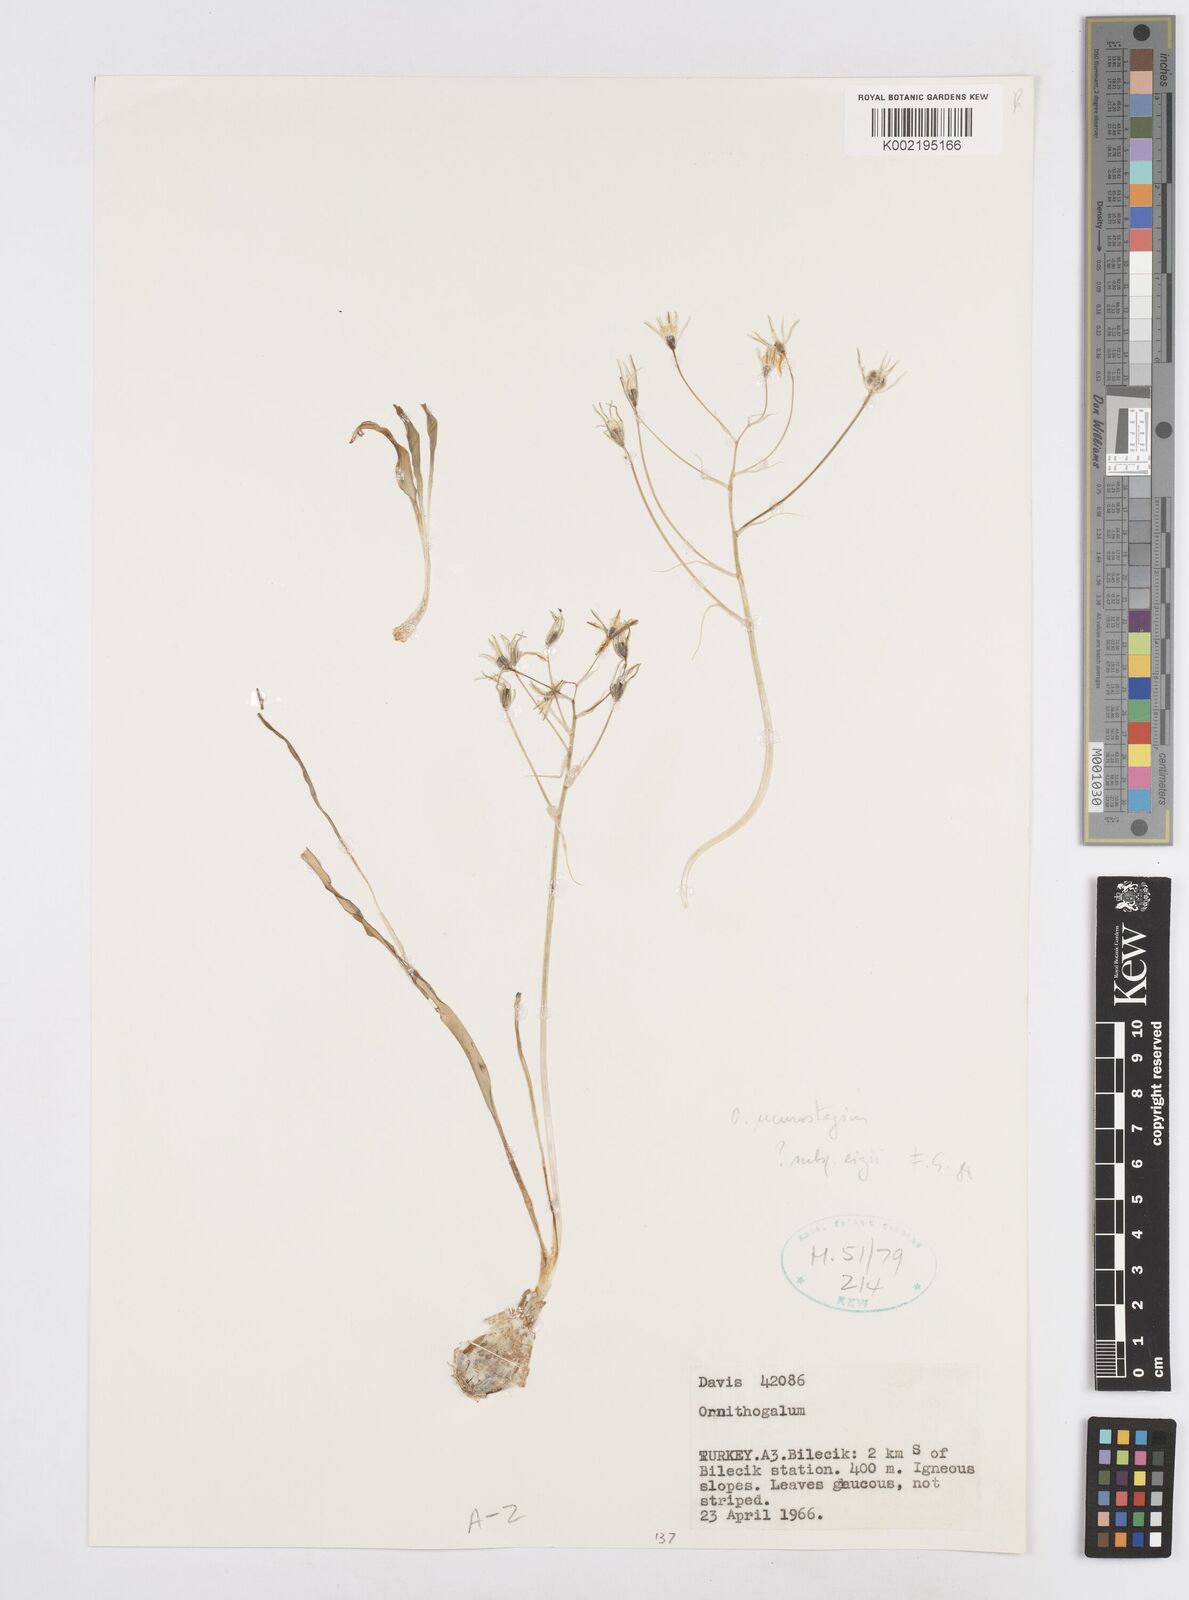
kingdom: Plantae
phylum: Tracheophyta
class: Liliopsida
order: Asparagales
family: Asparagaceae
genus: Ornithogalum
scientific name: Ornithogalum neurostegium
